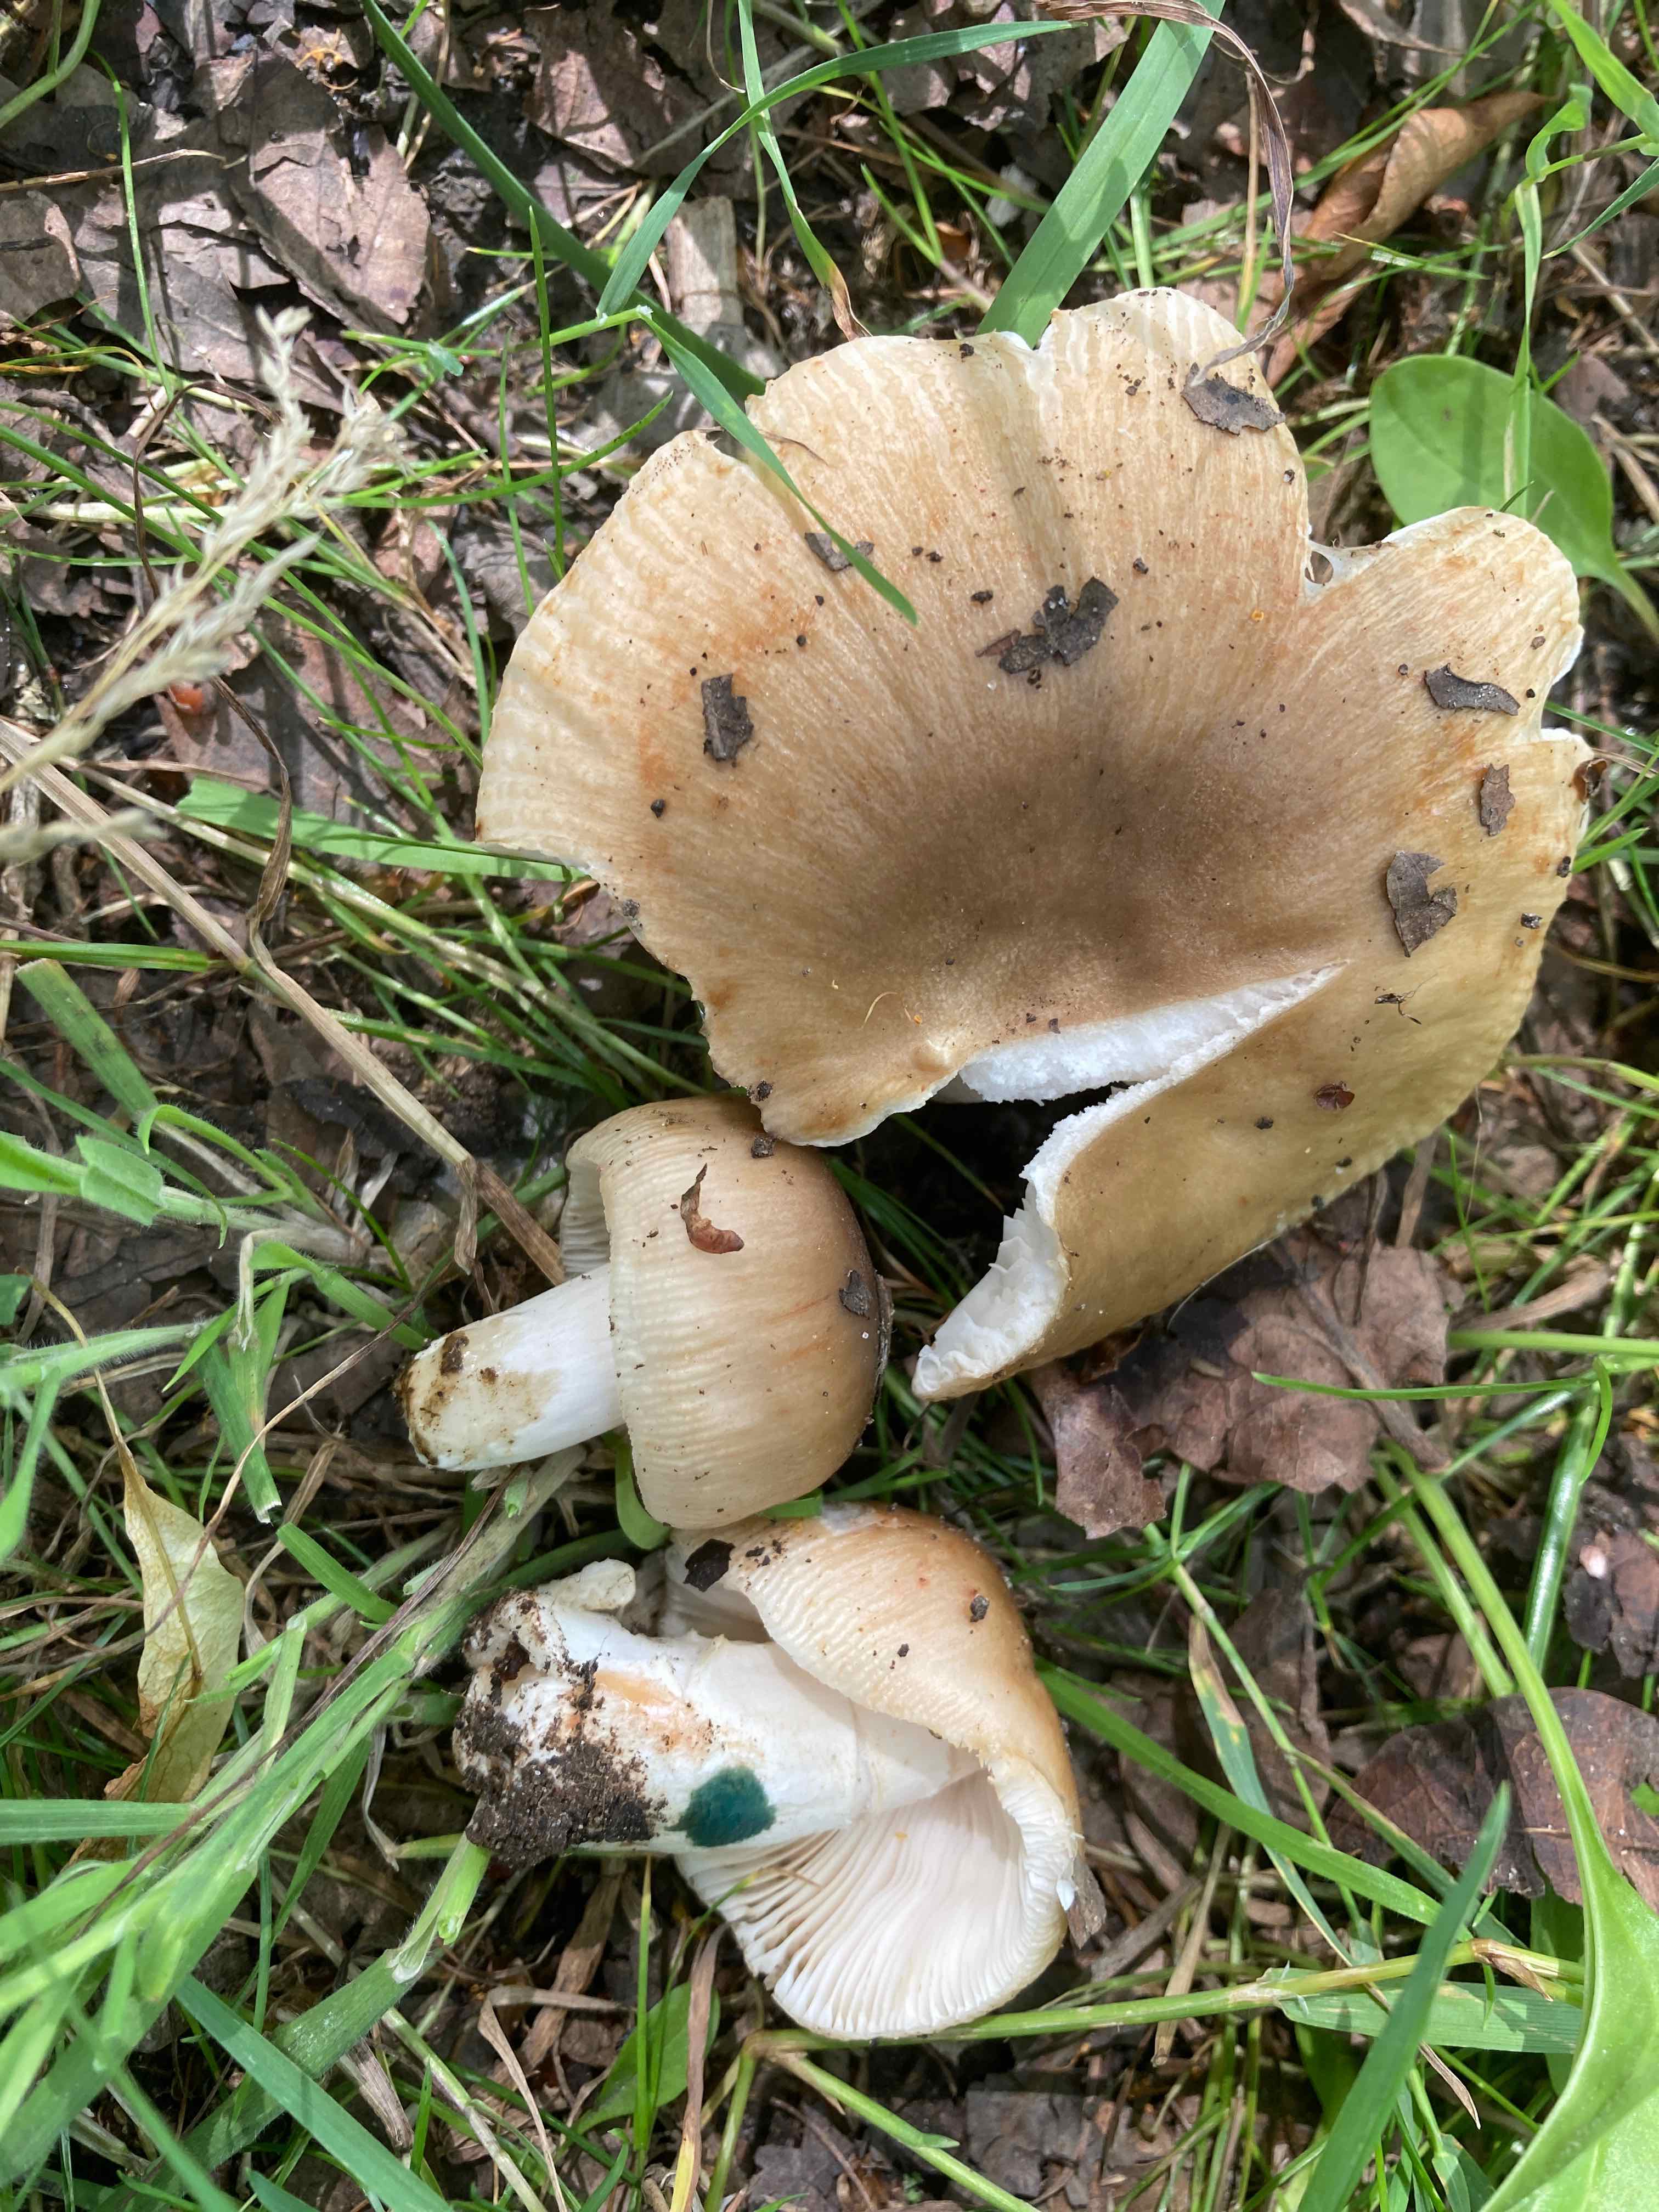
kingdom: Fungi
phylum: Basidiomycota
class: Agaricomycetes
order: Russulales
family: Russulaceae
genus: Russula
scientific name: Russula recondita
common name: mild kam-skørhat
